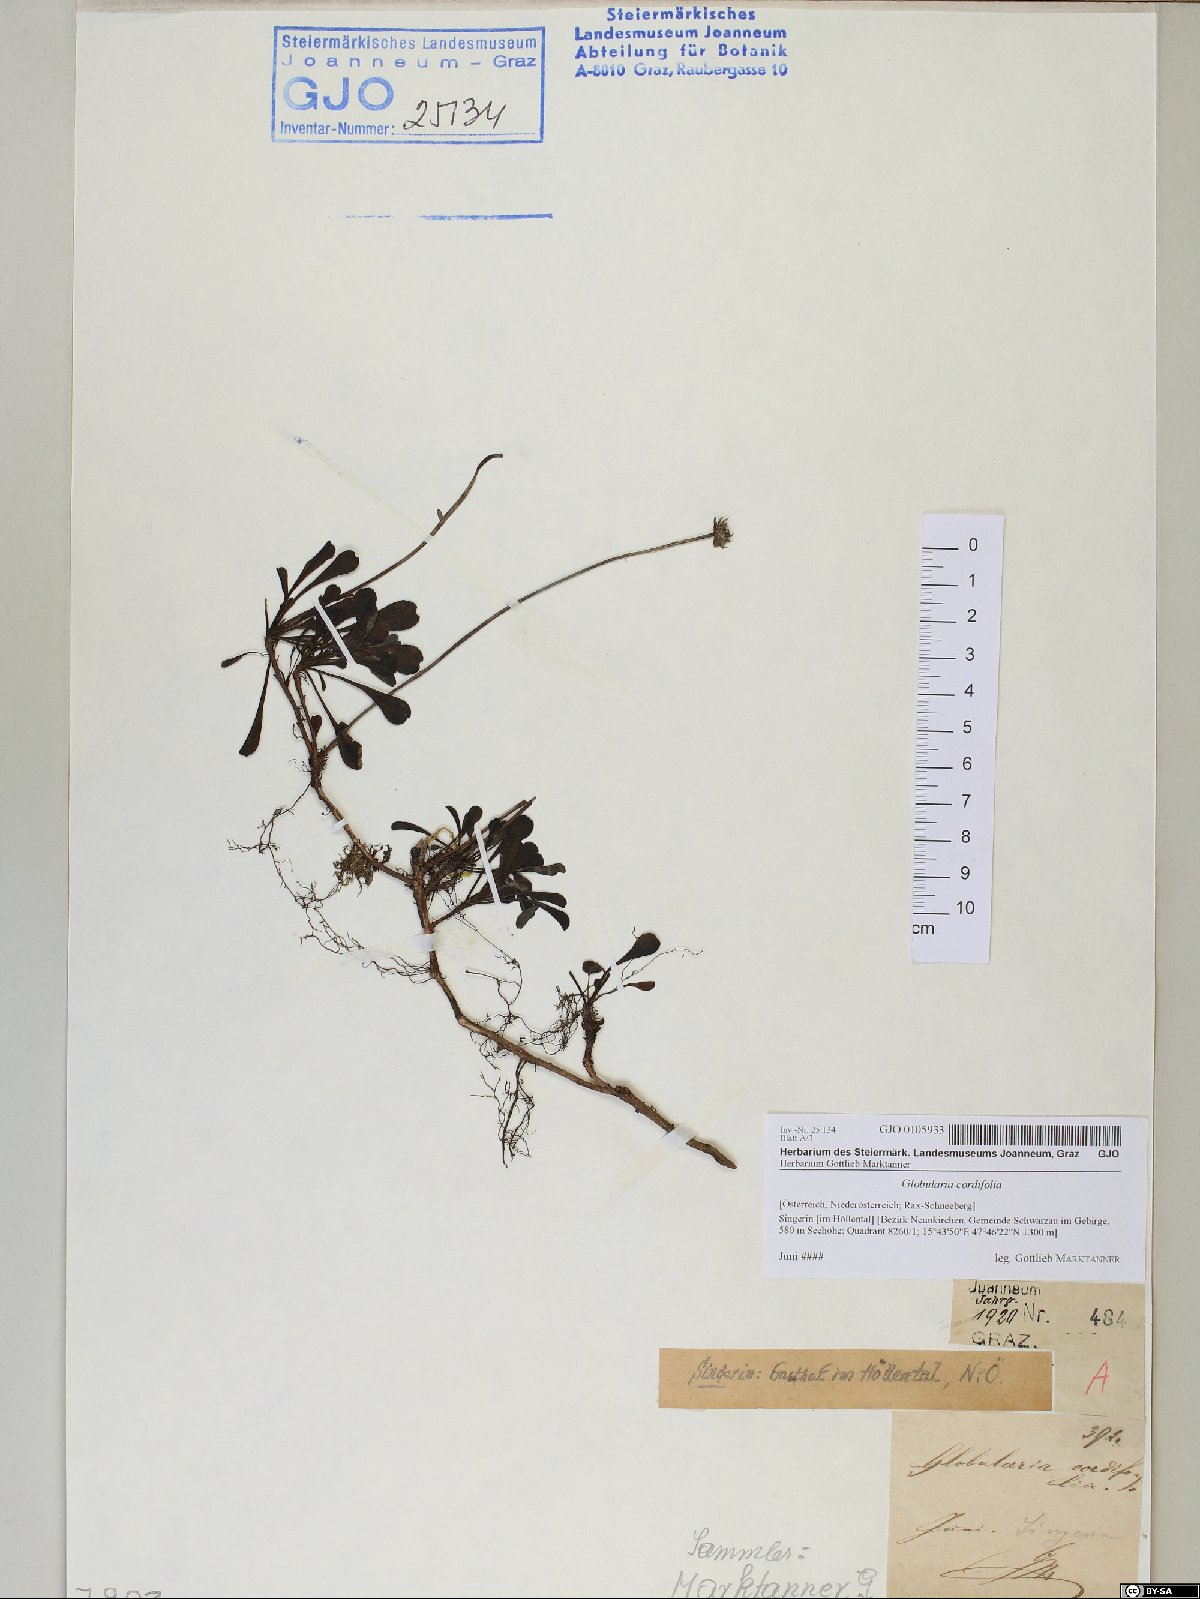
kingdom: Plantae
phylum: Tracheophyta
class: Magnoliopsida
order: Lamiales
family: Plantaginaceae
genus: Globularia
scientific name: Globularia cordifolia
